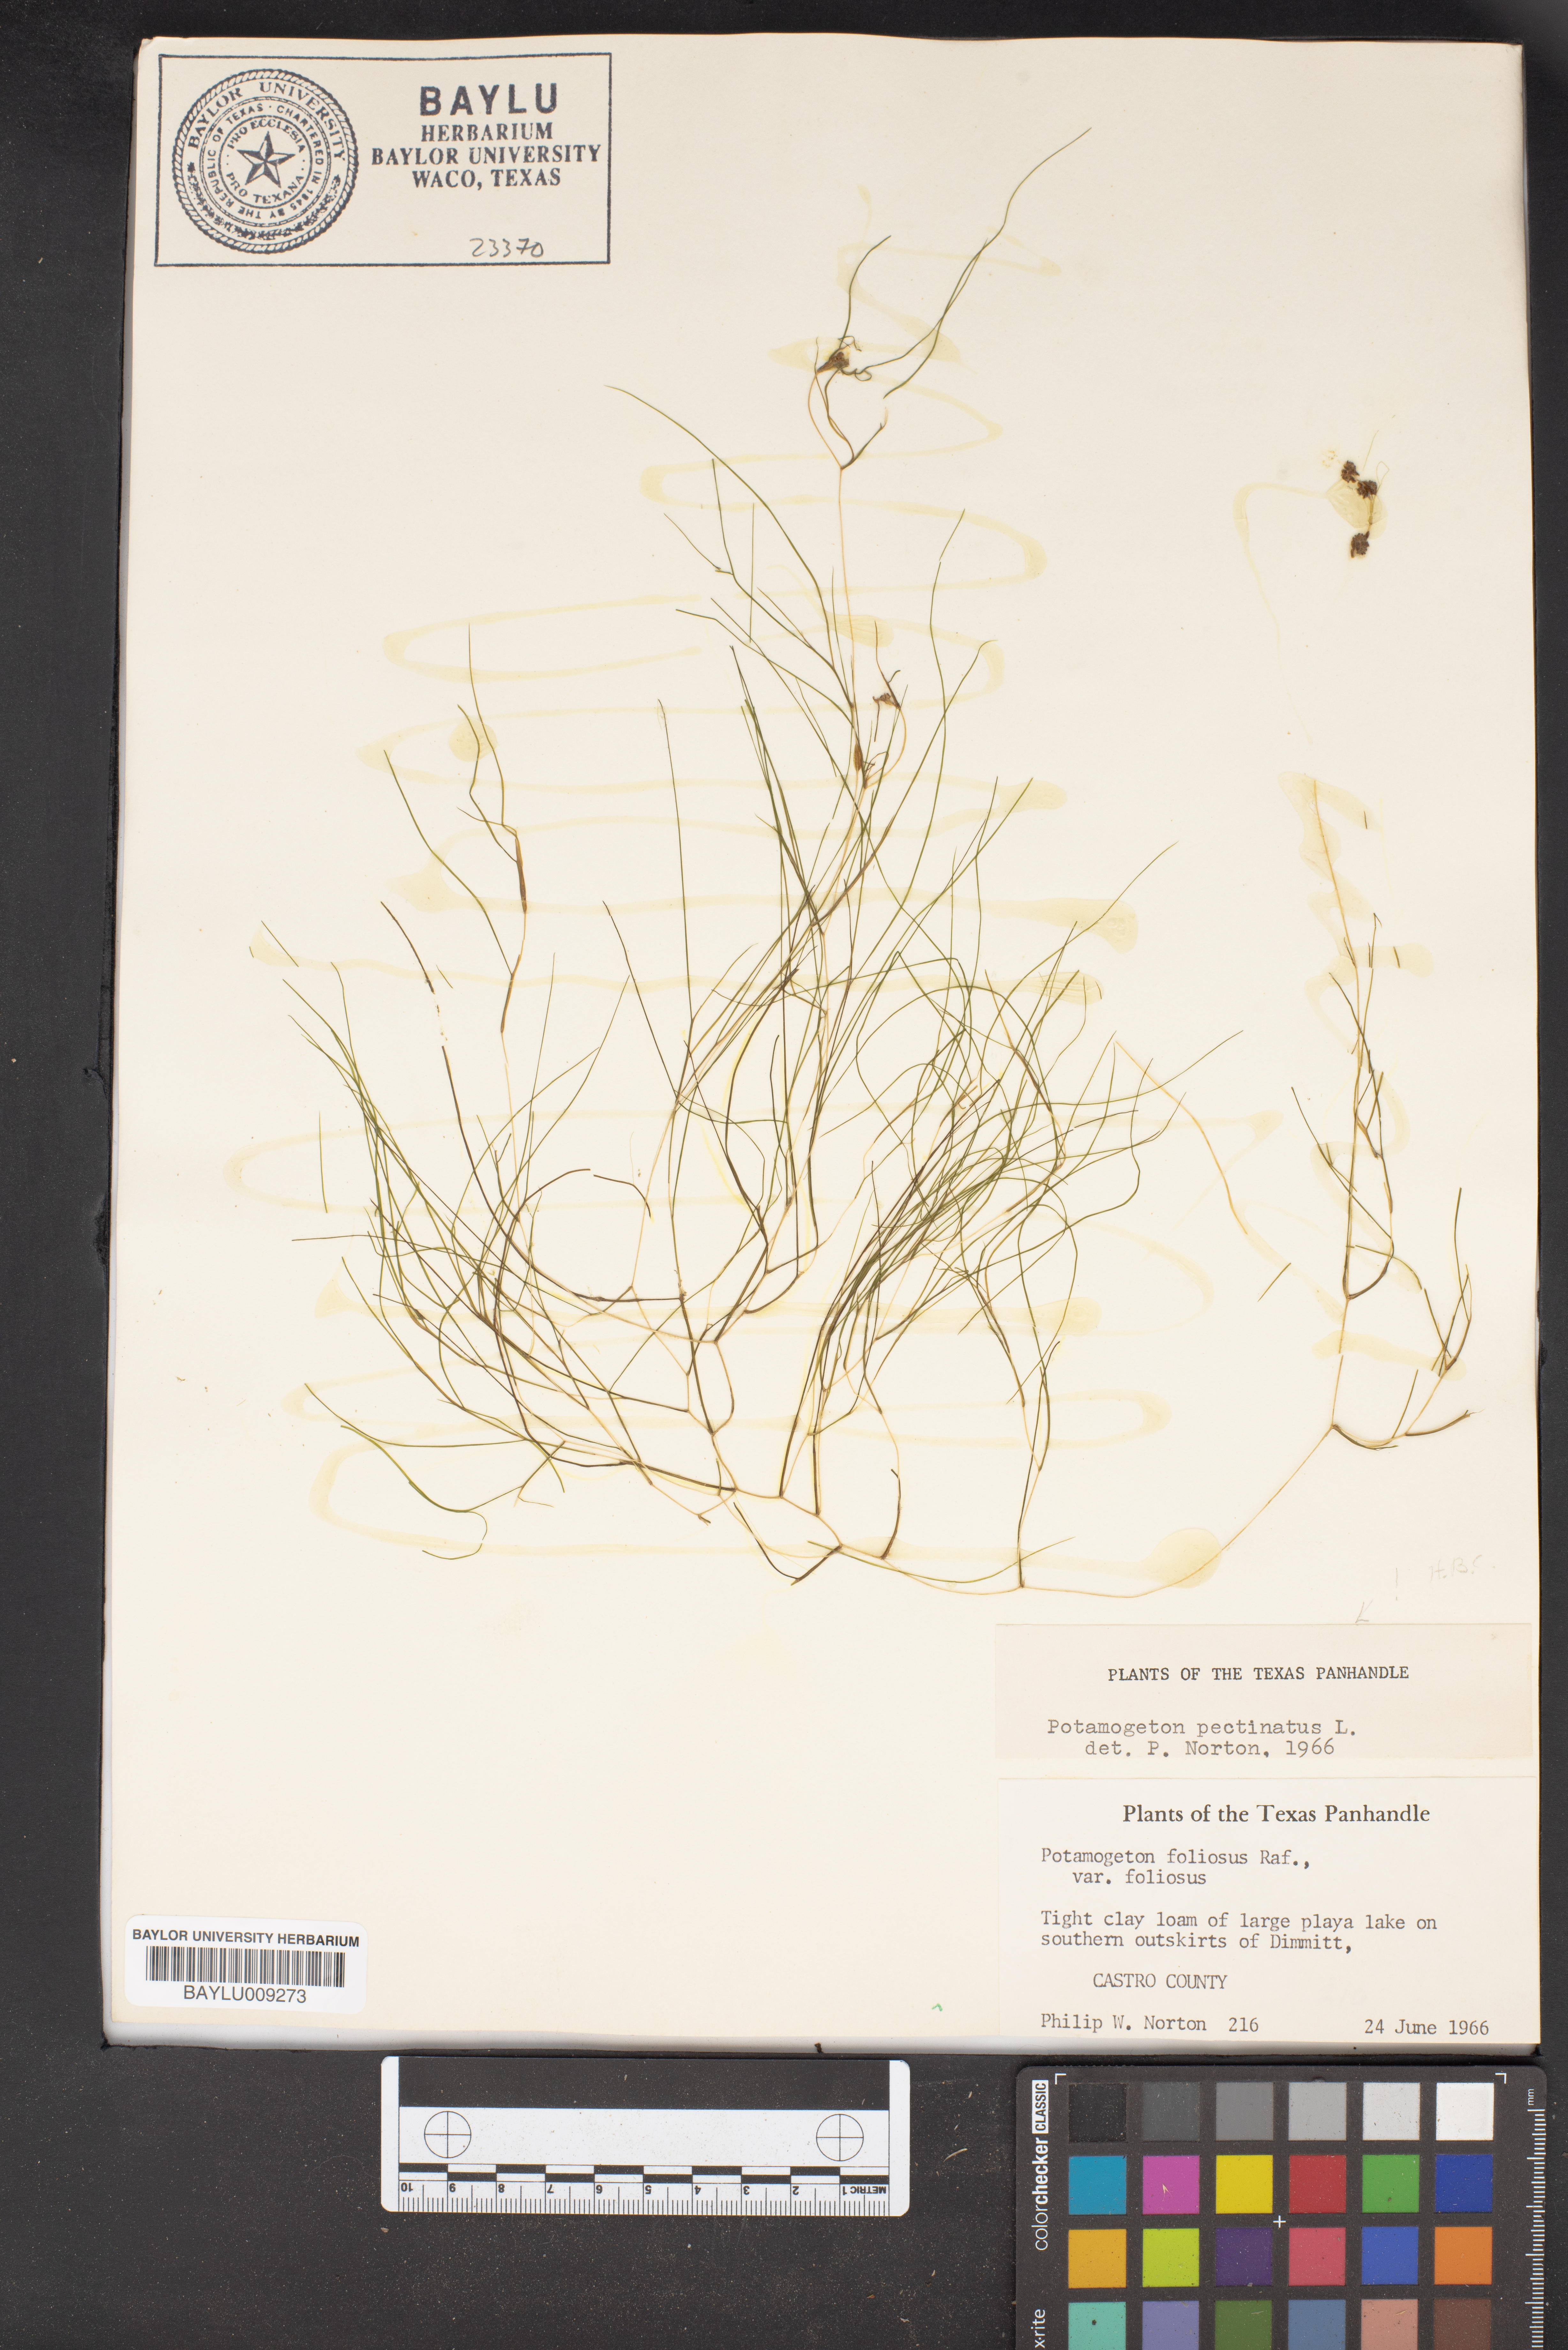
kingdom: Plantae
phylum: Tracheophyta
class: Liliopsida
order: Alismatales
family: Potamogetonaceae
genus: Stuckenia
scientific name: Stuckenia pectinata
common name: Sago pondweed
